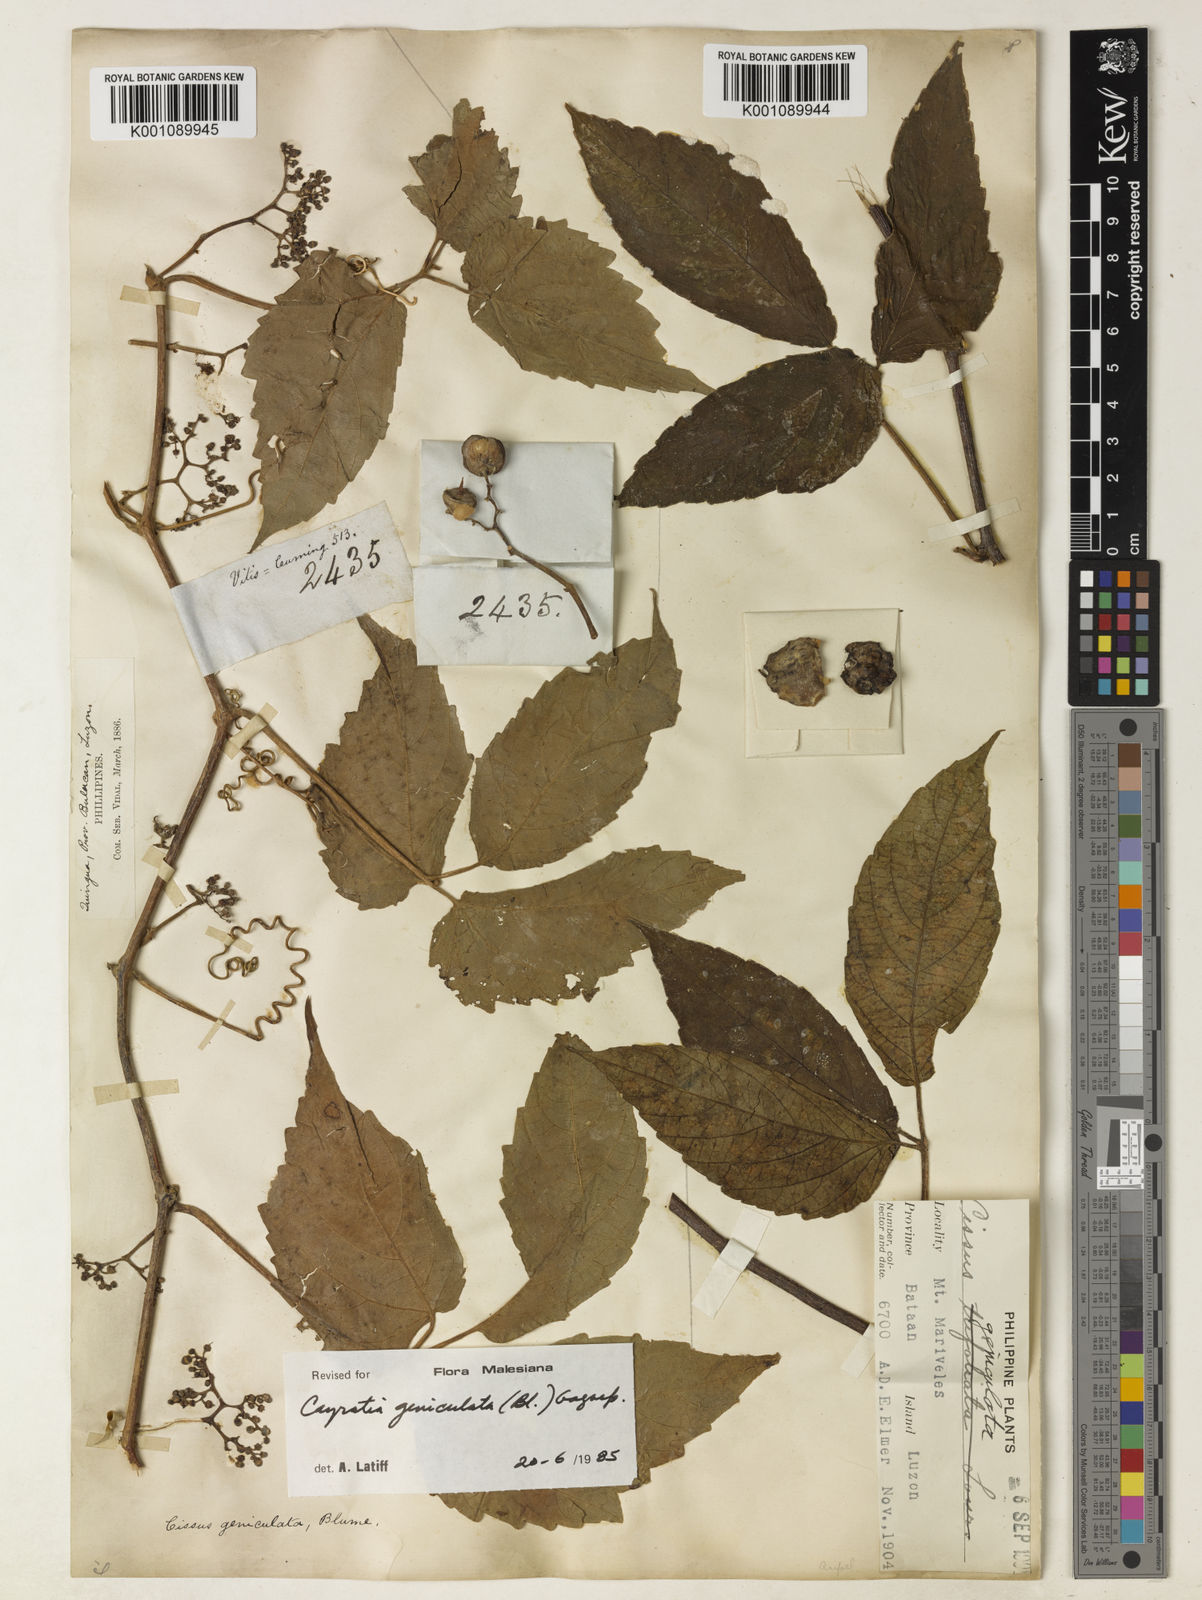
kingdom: Plantae
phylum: Tracheophyta
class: Magnoliopsida
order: Vitales
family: Vitaceae
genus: Cayratia
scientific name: Cayratia mollissima
